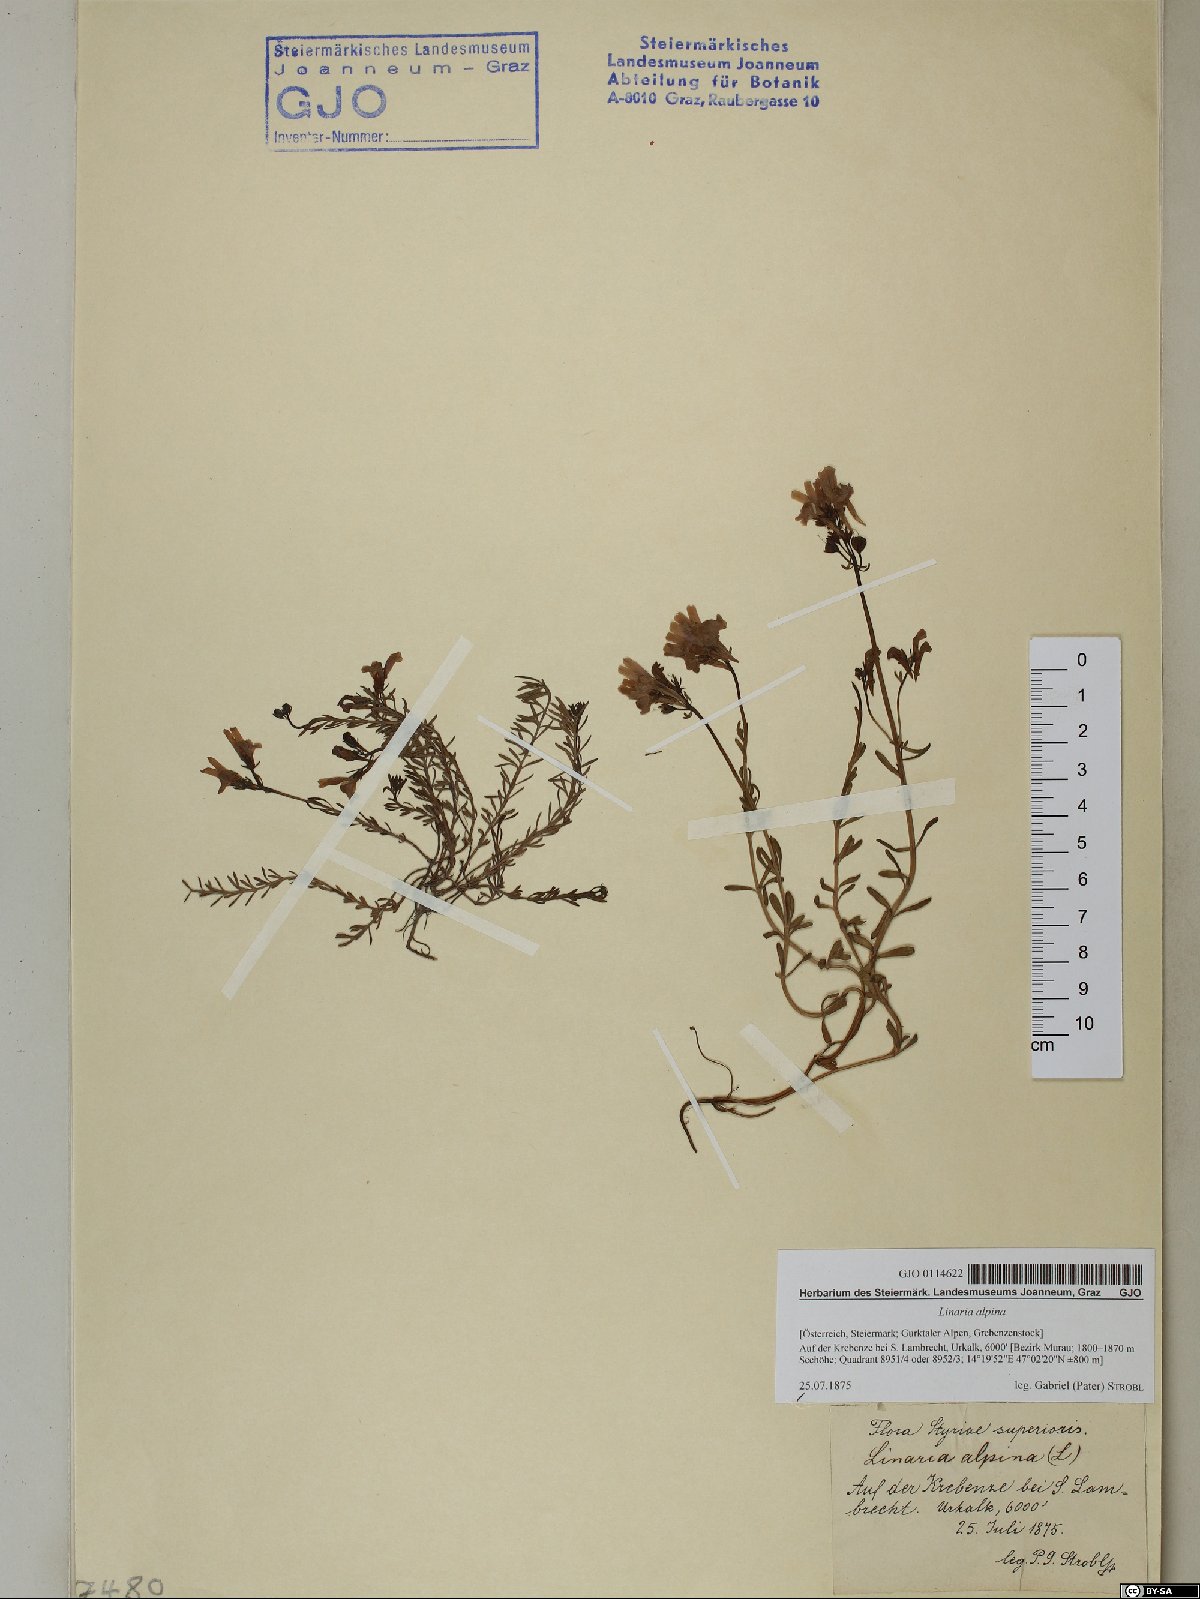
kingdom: Plantae
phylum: Tracheophyta
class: Magnoliopsida
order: Lamiales
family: Plantaginaceae
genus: Linaria
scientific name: Linaria alpina
